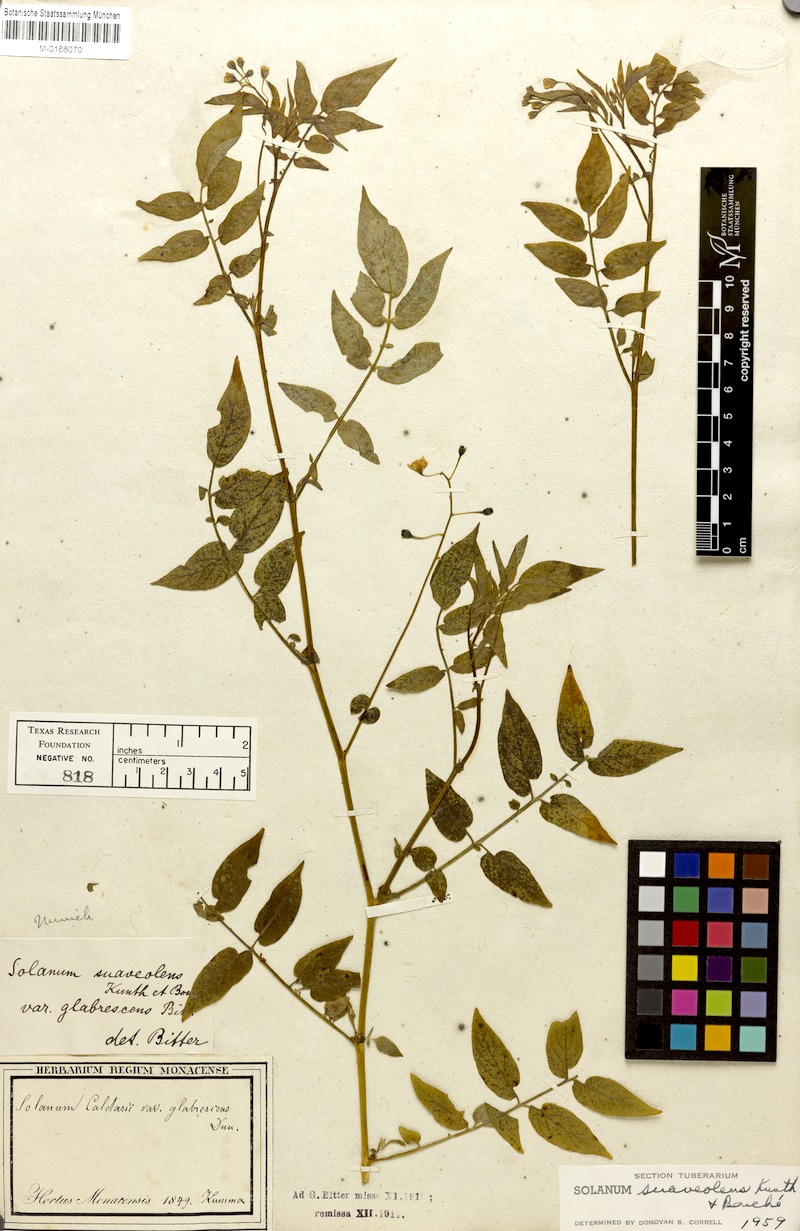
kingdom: Plantae
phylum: Tracheophyta
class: Magnoliopsida
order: Solanales
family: Solanaceae
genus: Solanum
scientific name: Solanum suaveolens
